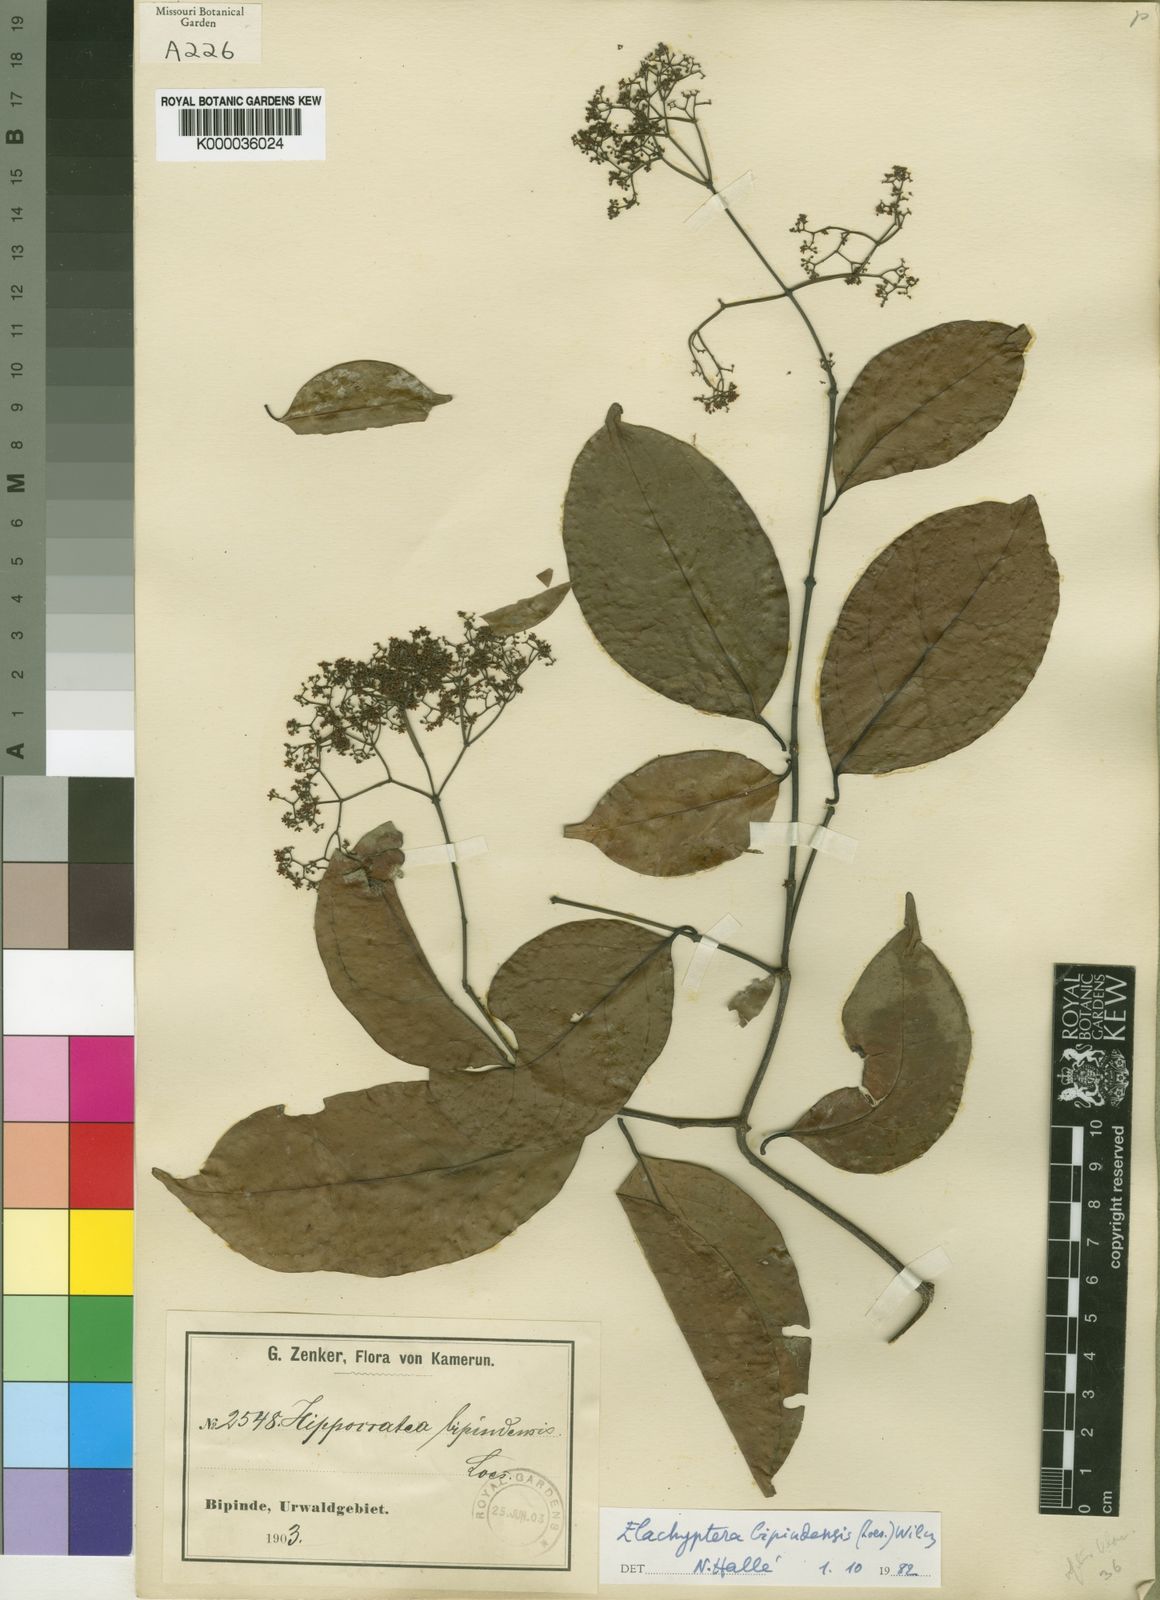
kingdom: Plantae
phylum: Tracheophyta
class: Magnoliopsida
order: Celastrales
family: Celastraceae
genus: Elachyptera
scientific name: Elachyptera bipindensis
